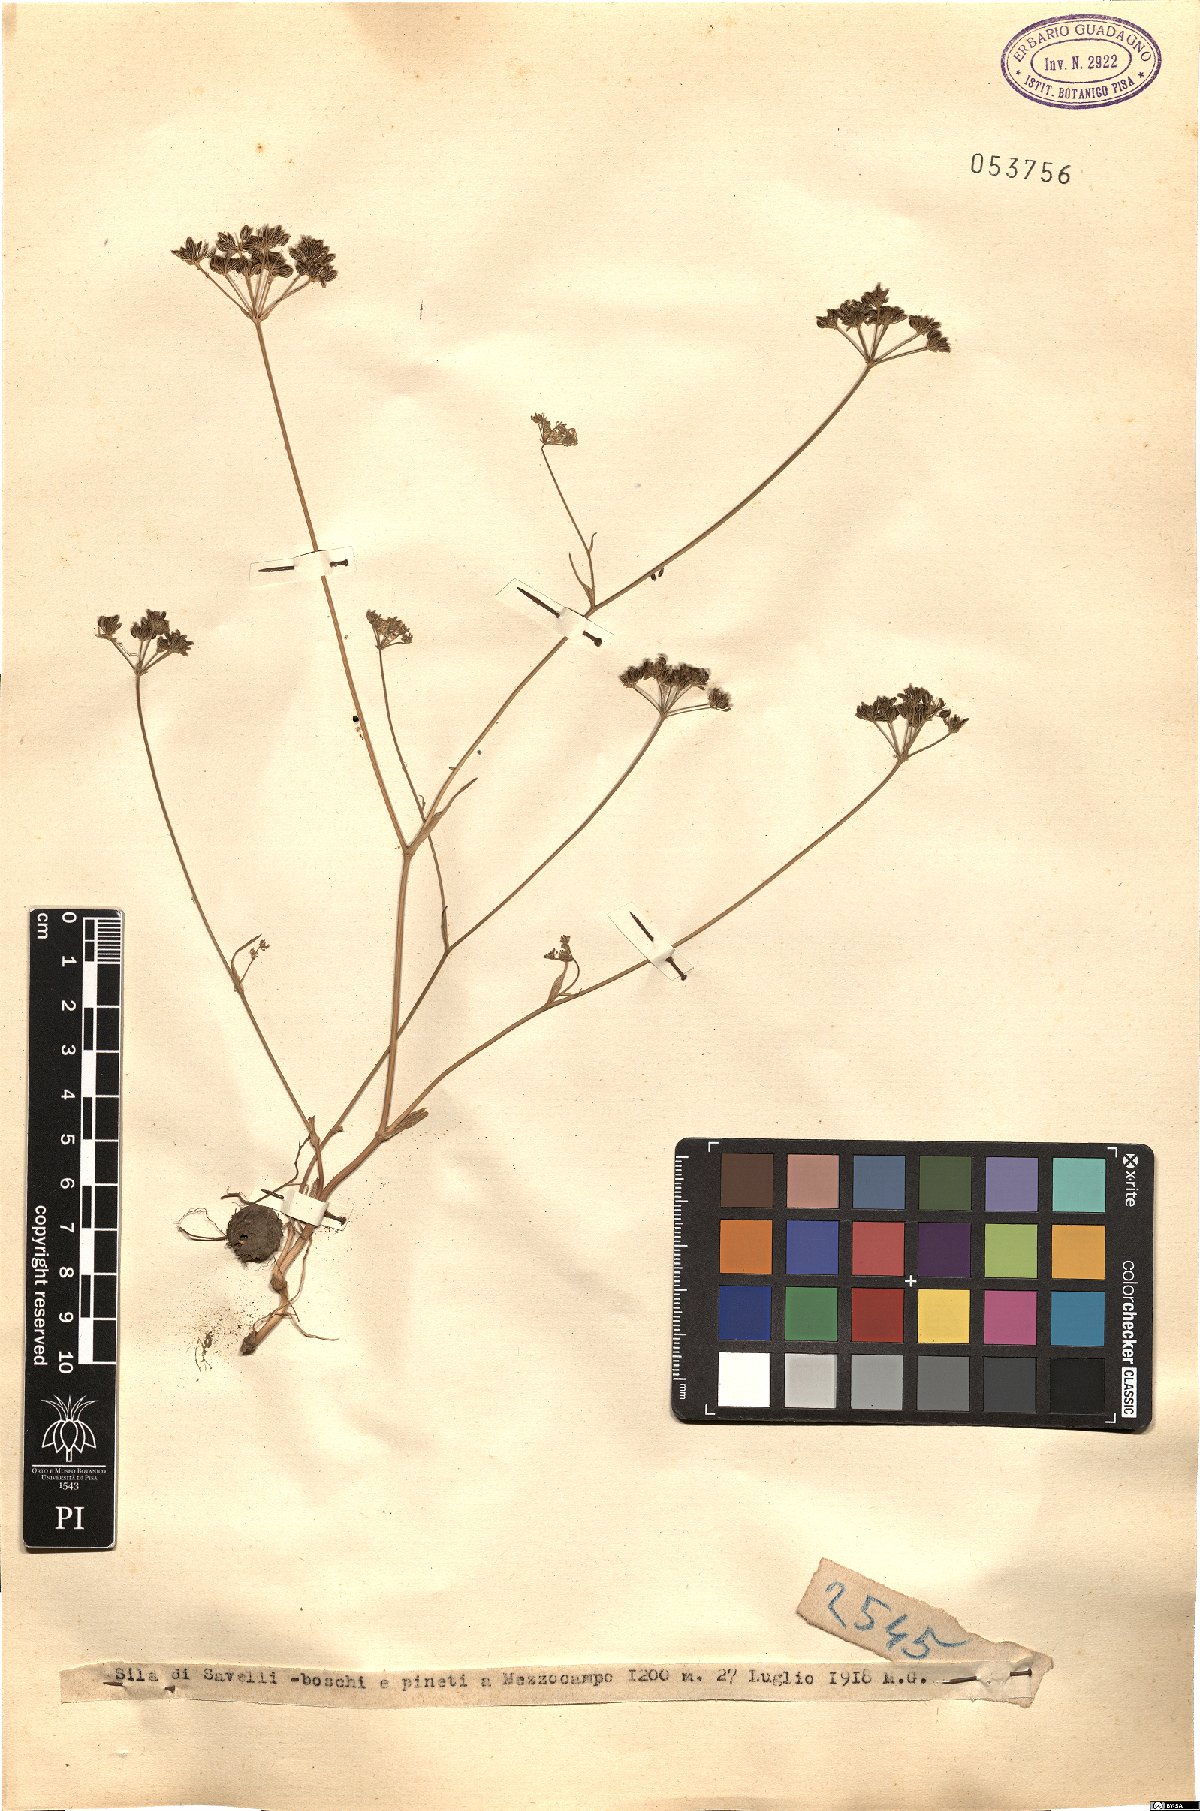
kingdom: Plantae
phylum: Tracheophyta
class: Magnoliopsida
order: Apiales
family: Apiaceae
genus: Bunium
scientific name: Bunium
